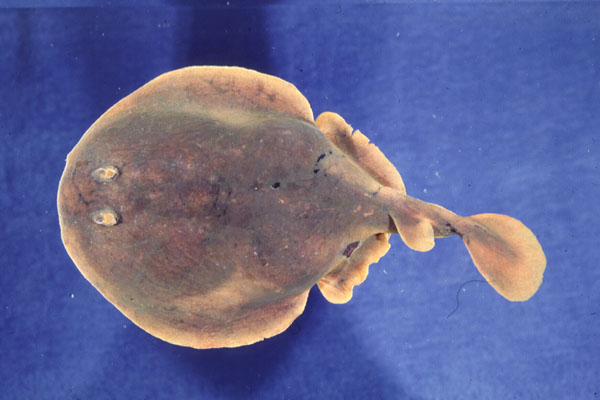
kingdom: Animalia
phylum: Chordata
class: Elasmobranchii
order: Torpediniformes
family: Narkidae
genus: Narke
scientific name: Narke capensis
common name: Onefin electric ray
